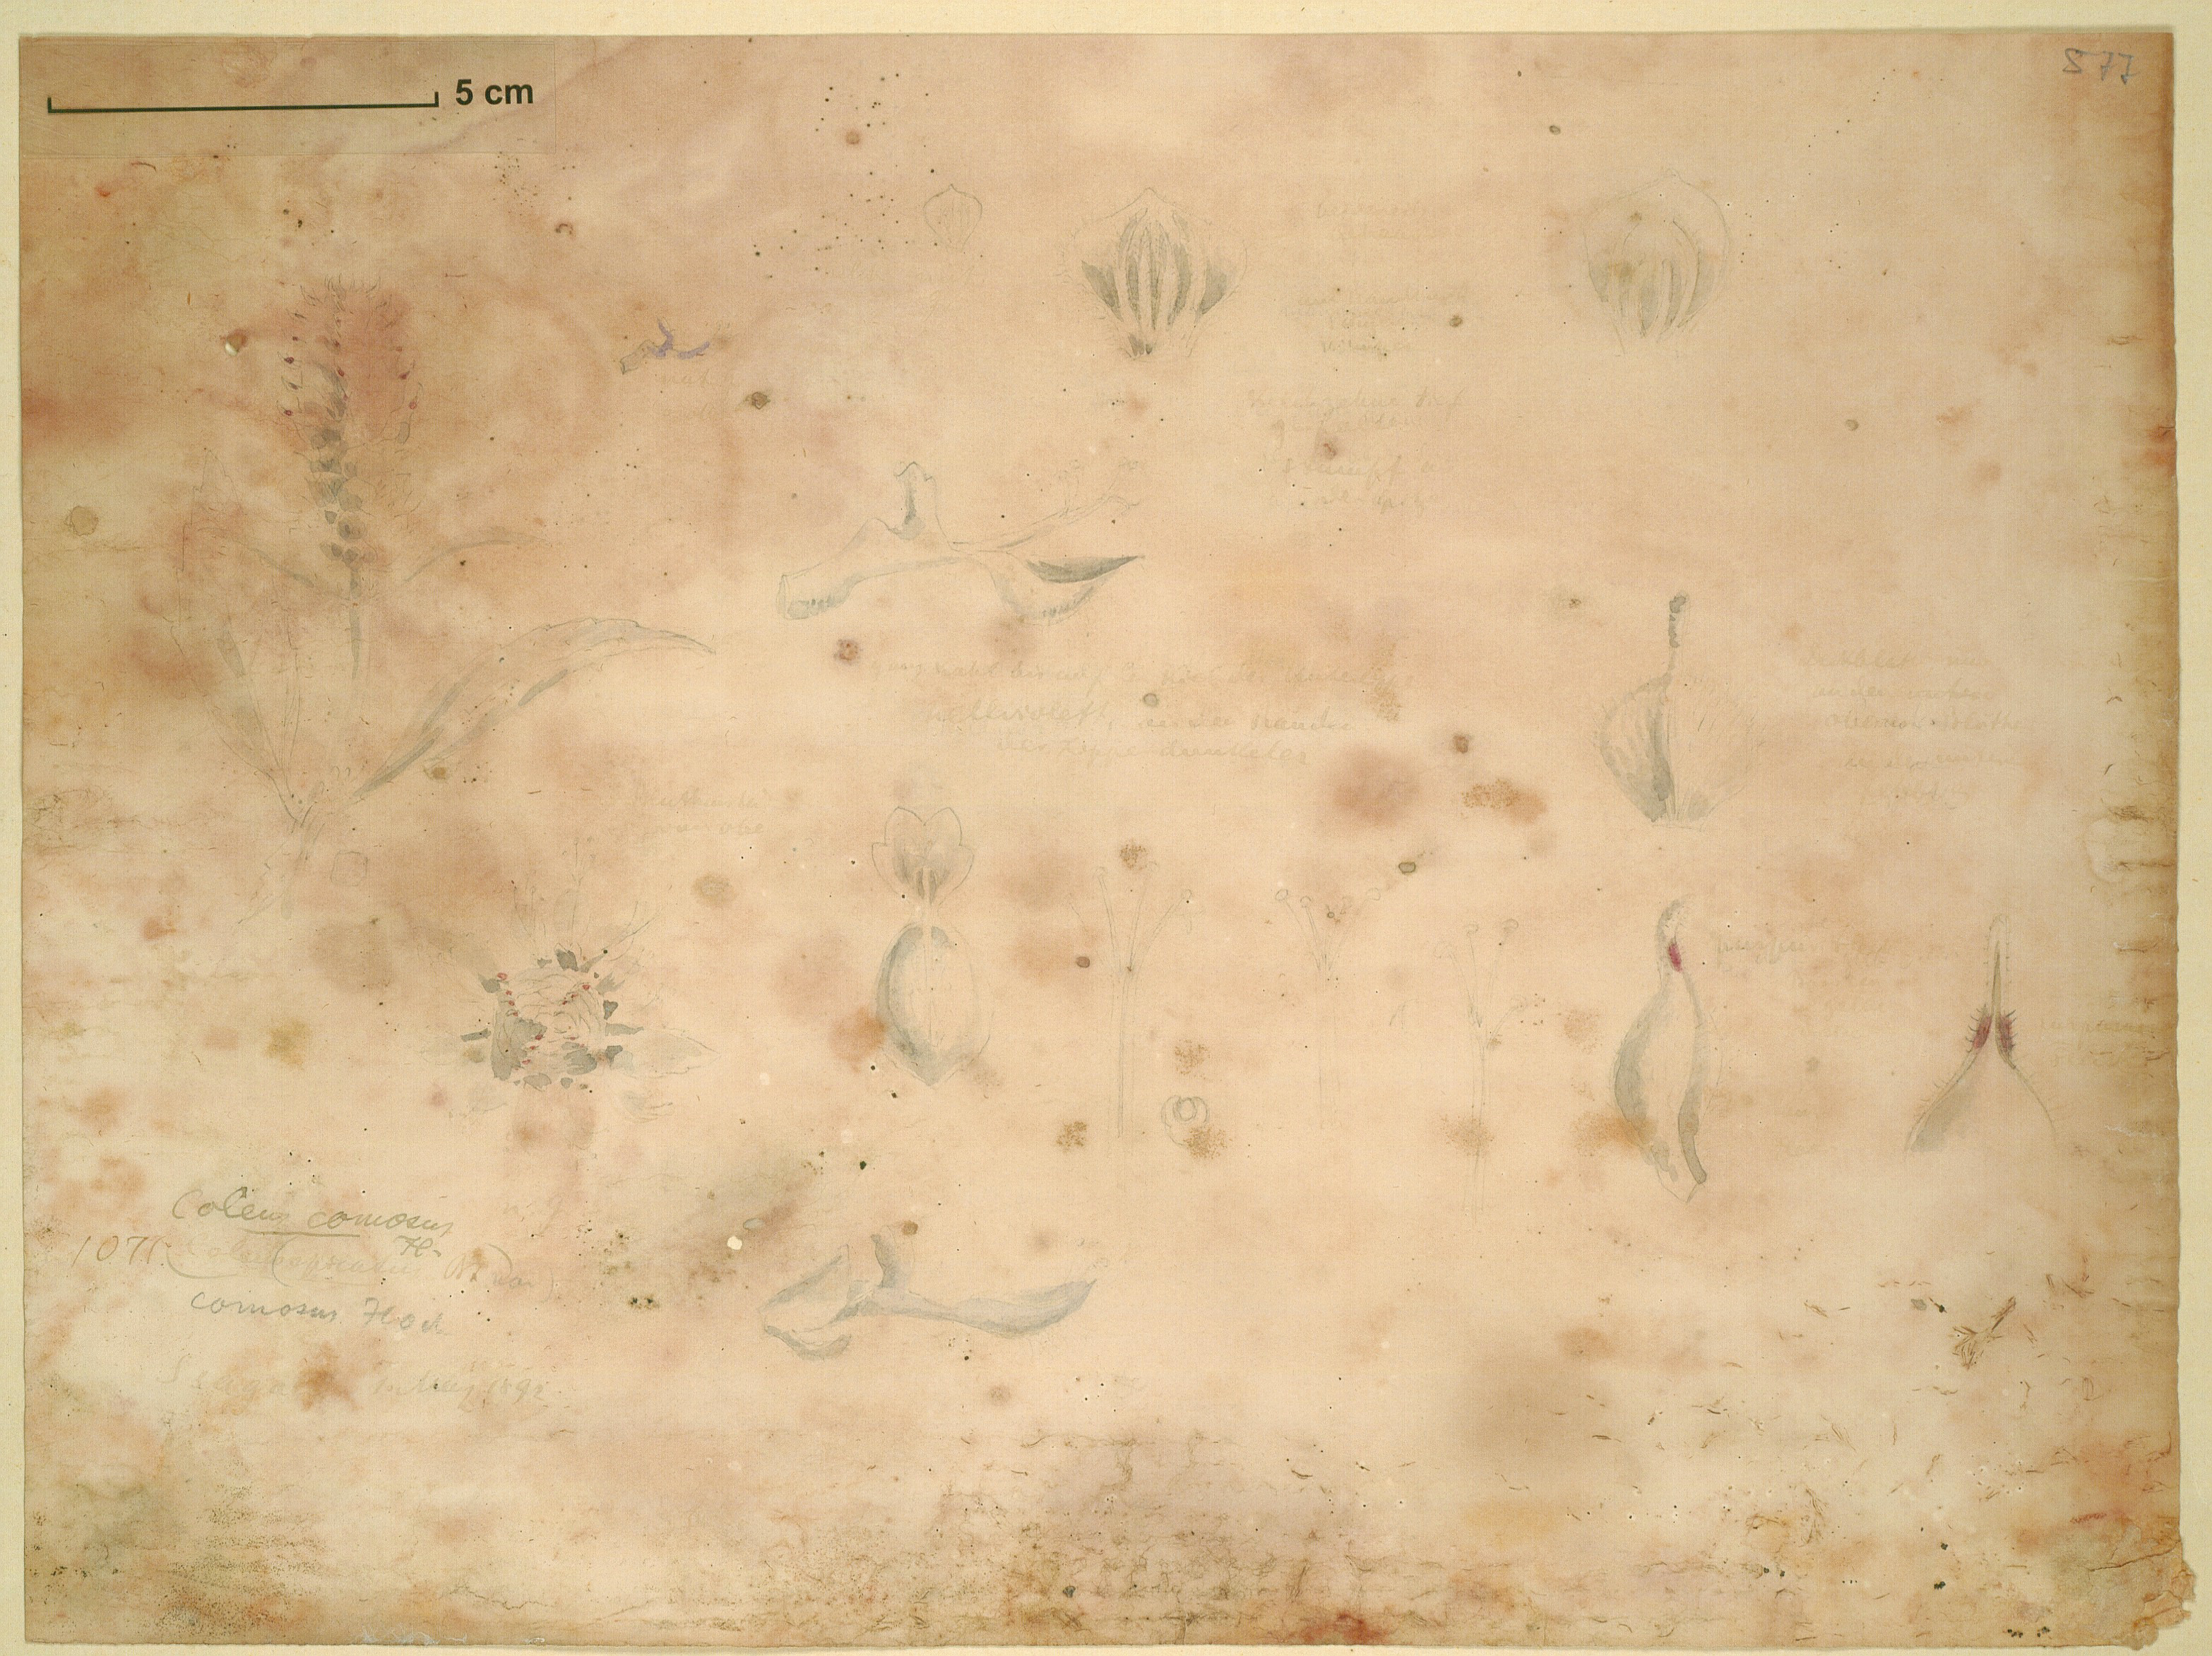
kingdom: Plantae
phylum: Tracheophyta
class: Magnoliopsida
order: Lamiales
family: Lamiaceae
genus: Coleus
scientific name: Coleus comosus
